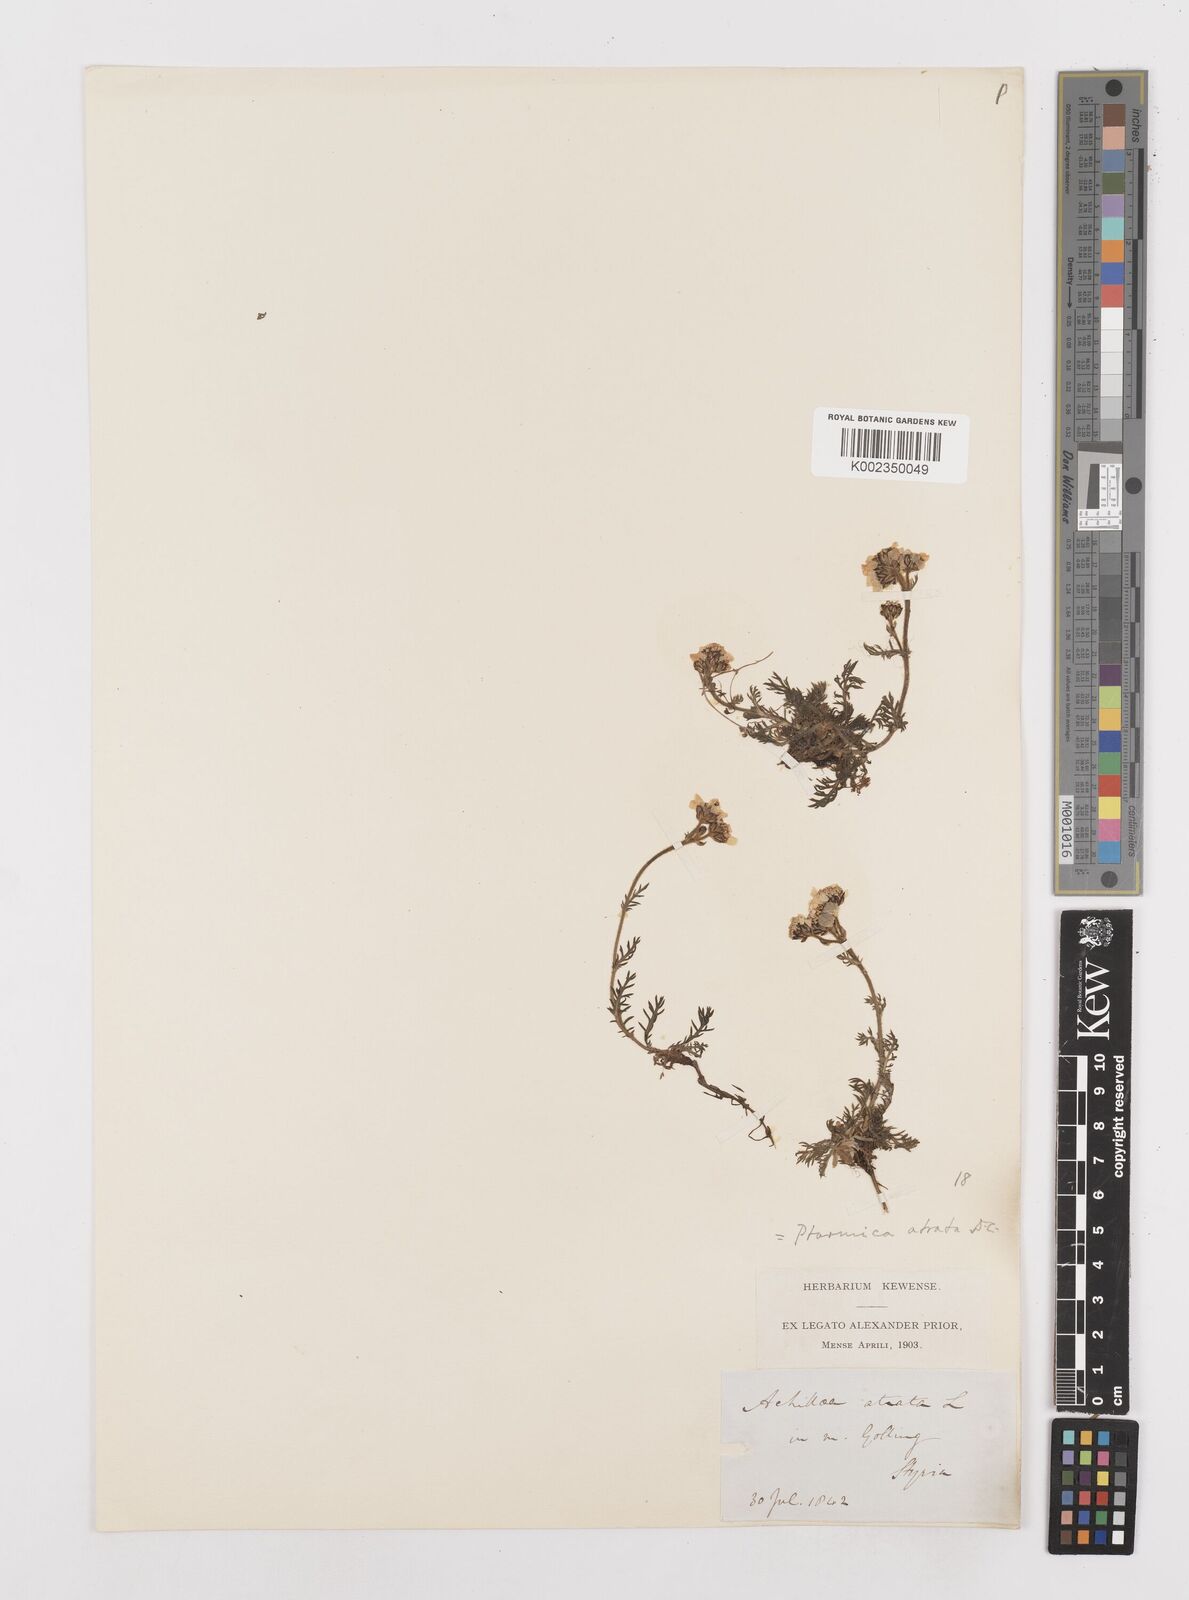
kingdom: Plantae
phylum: Tracheophyta
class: Magnoliopsida
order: Asterales
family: Asteraceae
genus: Achillea
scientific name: Achillea atrata
